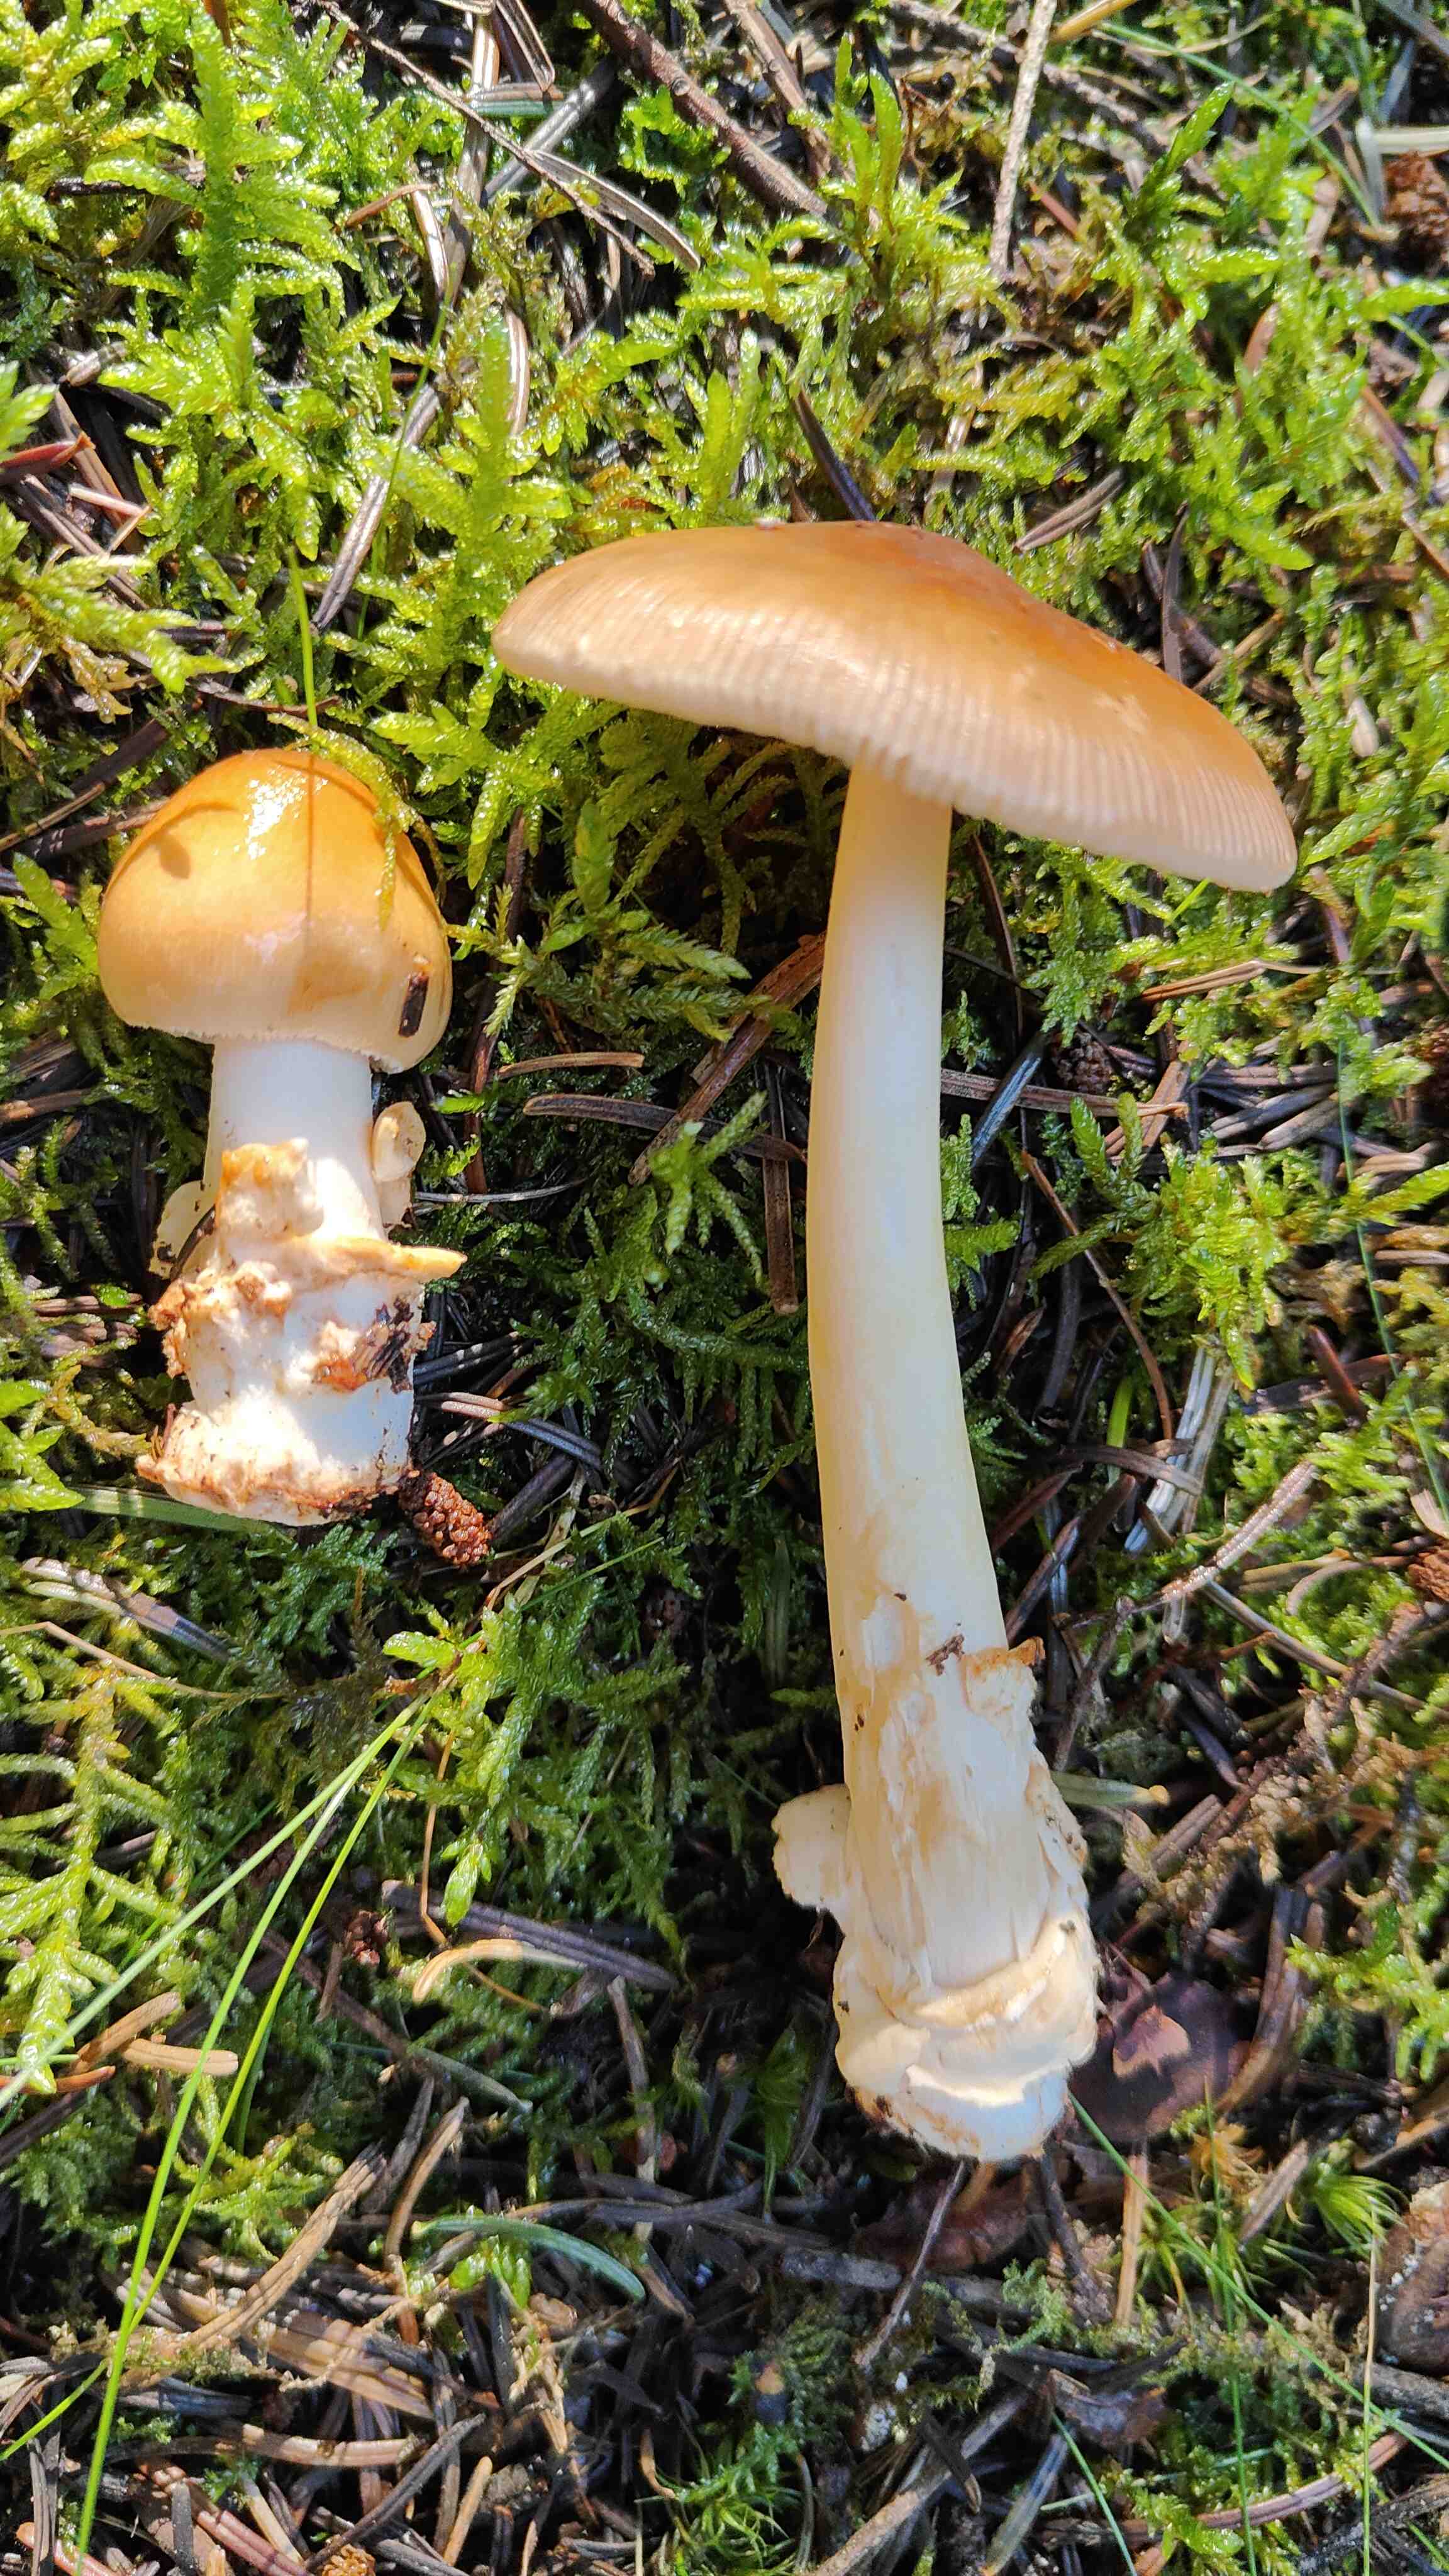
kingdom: Fungi
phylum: Basidiomycota
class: Agaricomycetes
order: Agaricales
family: Amanitaceae
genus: Amanita
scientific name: Amanita fulva
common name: brun kam-fluesvamp
